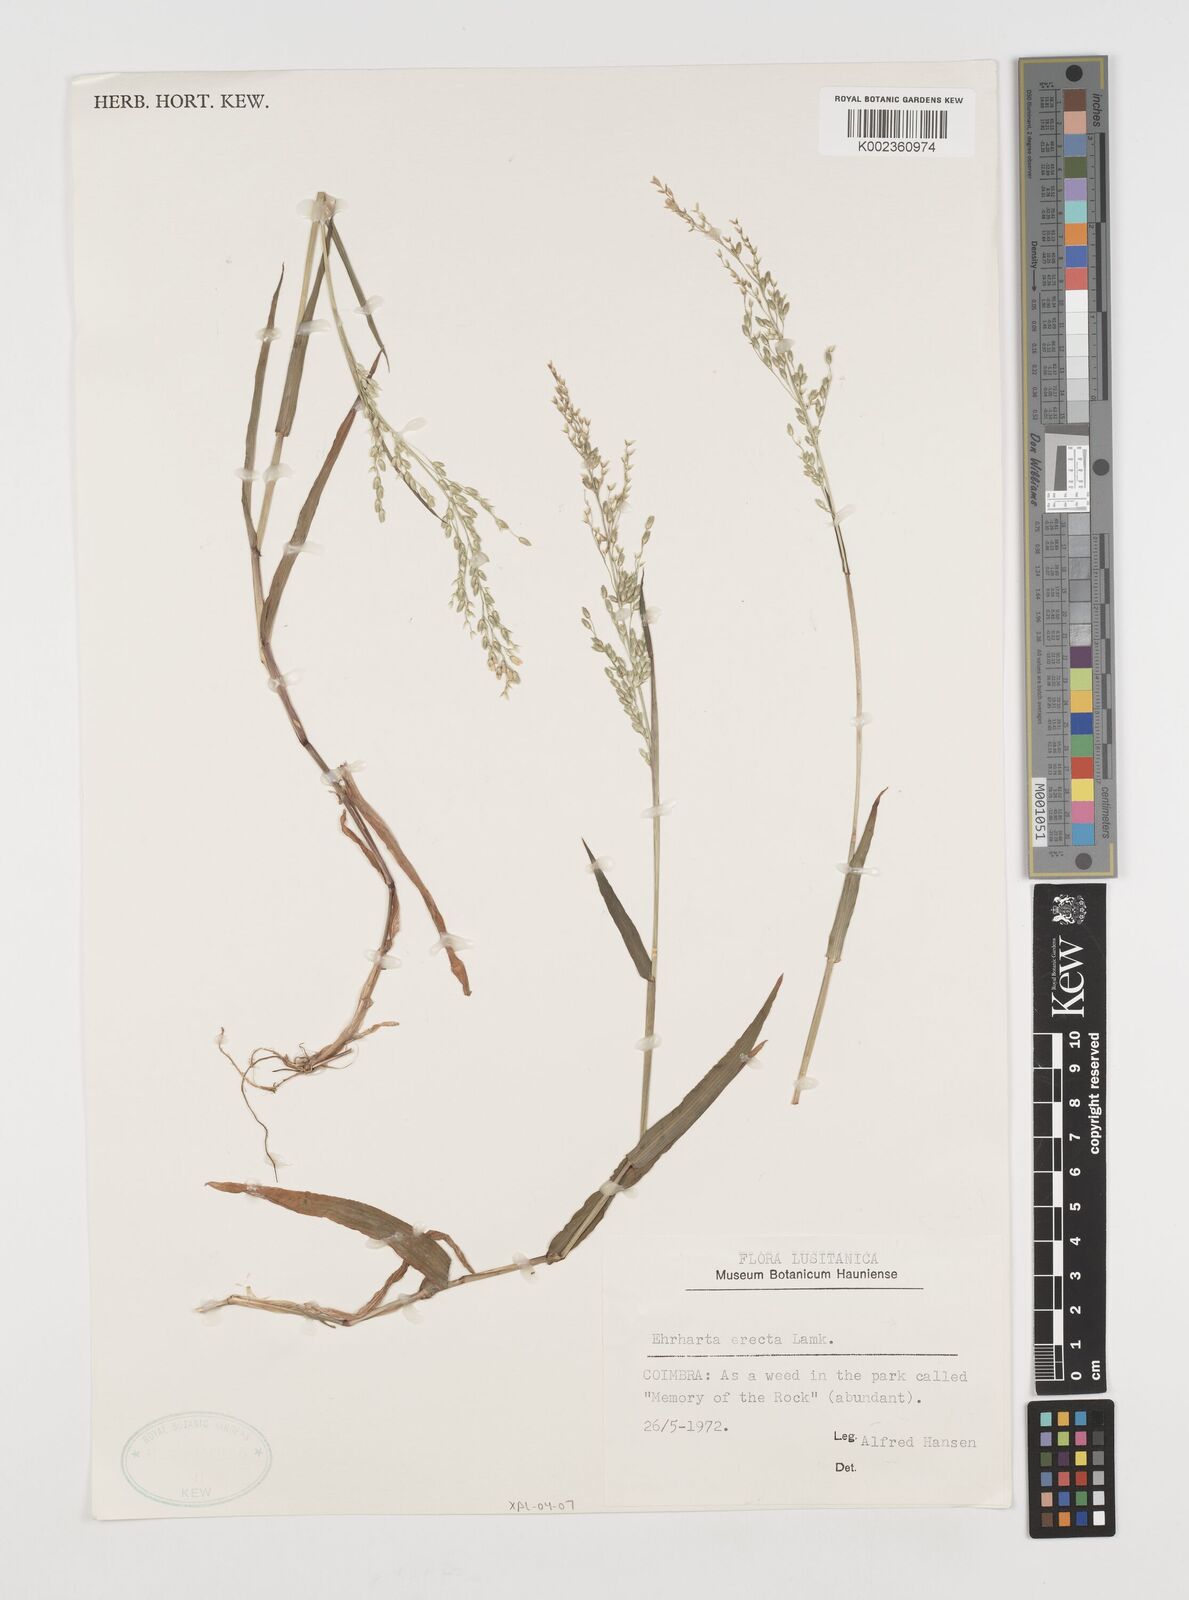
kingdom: Plantae
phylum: Tracheophyta
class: Liliopsida
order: Poales
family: Poaceae
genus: Ehrharta
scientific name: Ehrharta erecta
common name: Panic veldtgrass
